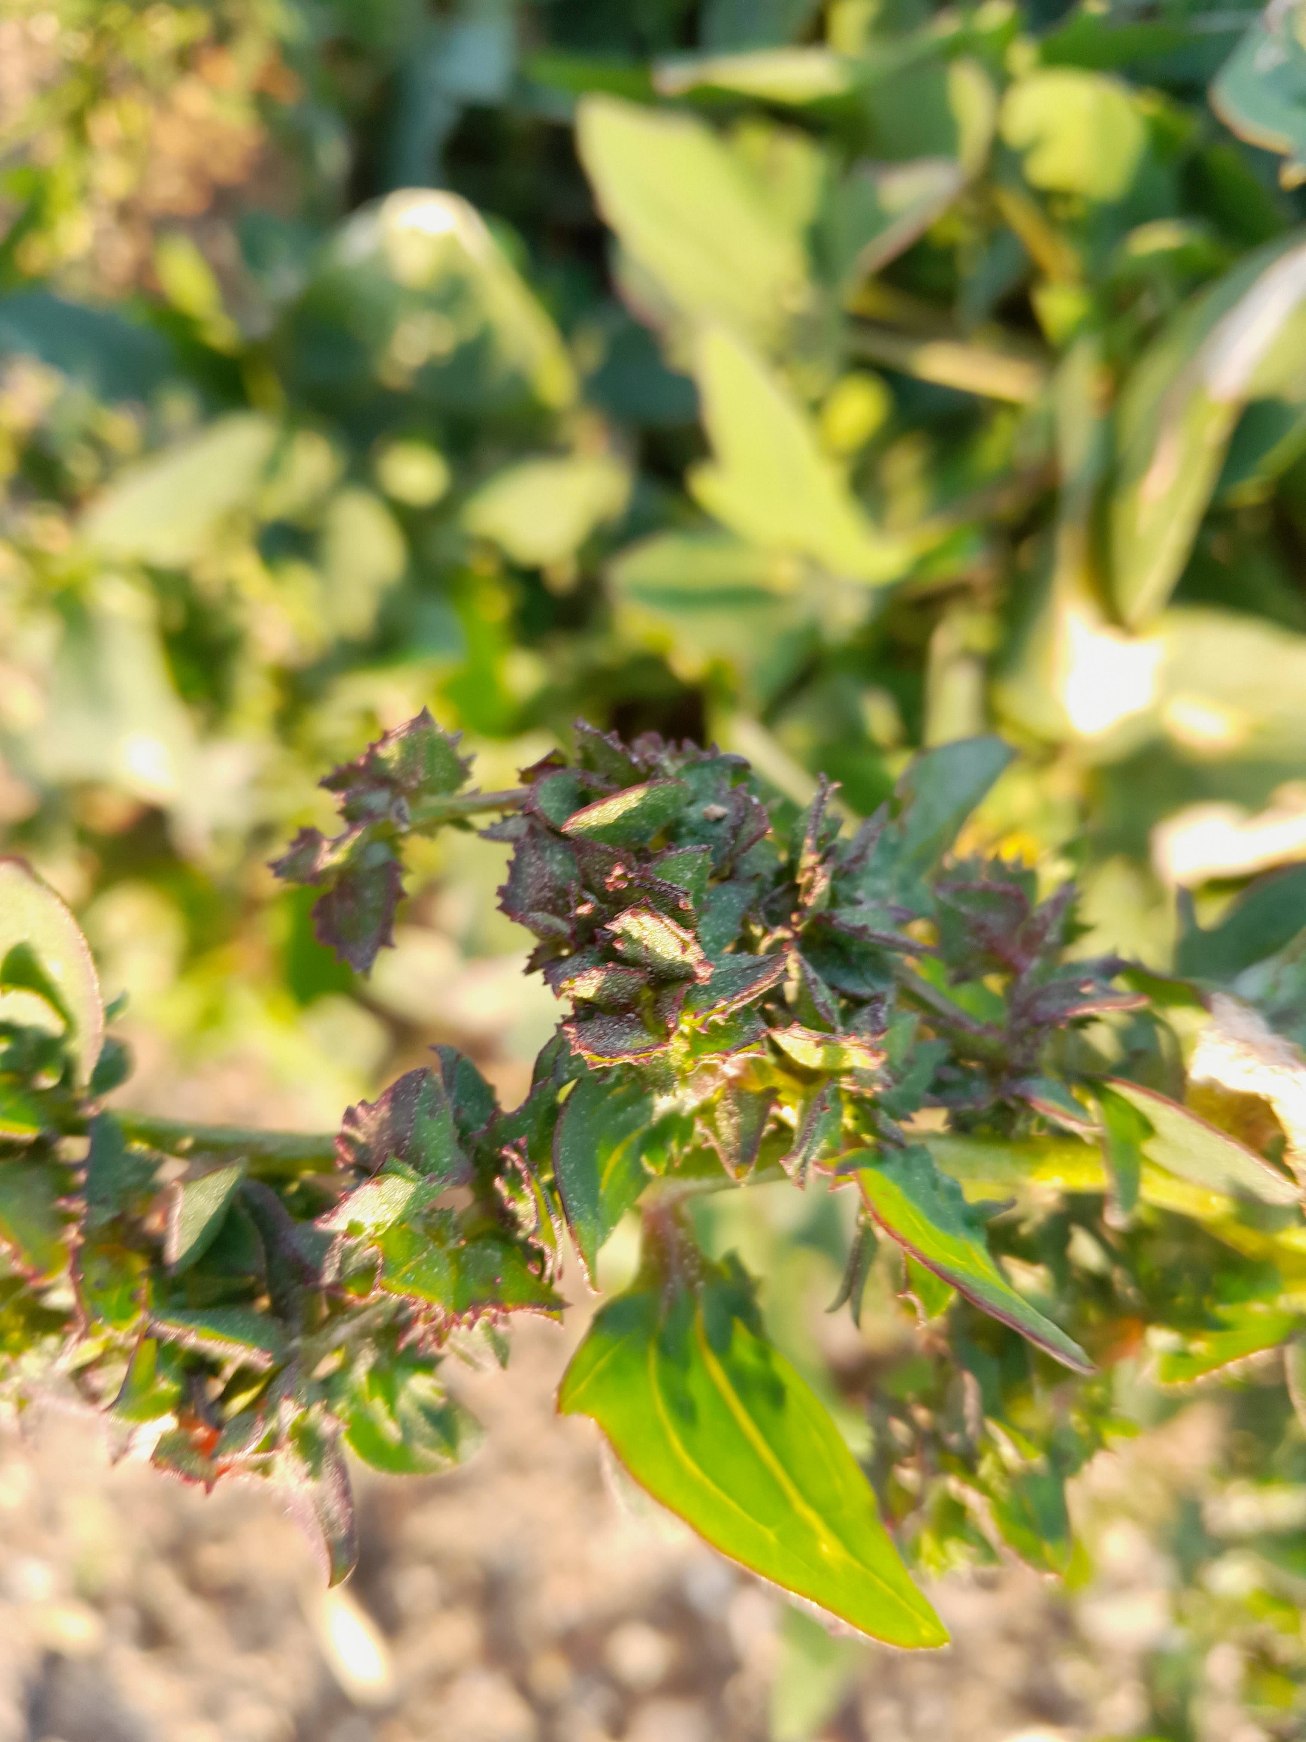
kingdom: Plantae
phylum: Tracheophyta
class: Magnoliopsida
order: Caryophyllales
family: Amaranthaceae
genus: Atriplex
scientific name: Atriplex prostrata
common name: Spyd-mælde
